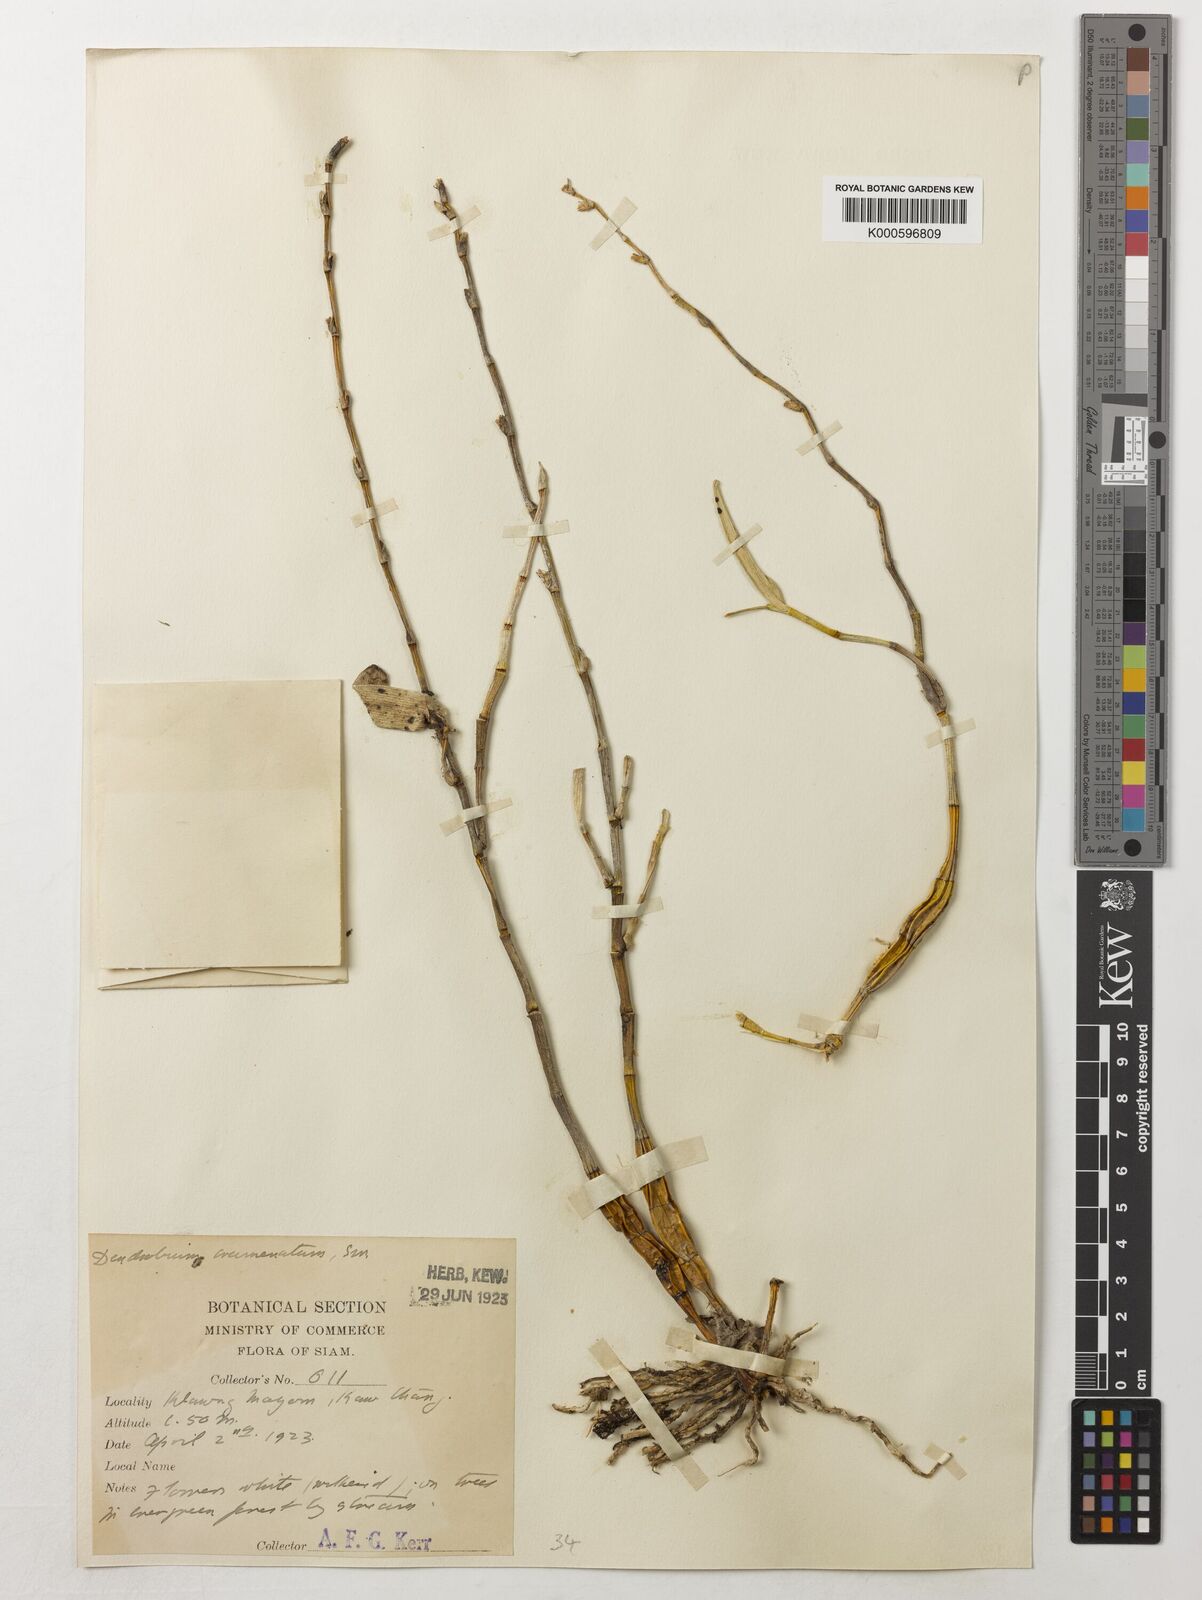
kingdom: Plantae
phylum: Tracheophyta
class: Liliopsida
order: Asparagales
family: Orchidaceae
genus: Dendrobium
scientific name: Dendrobium crumenatum
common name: Orchid
